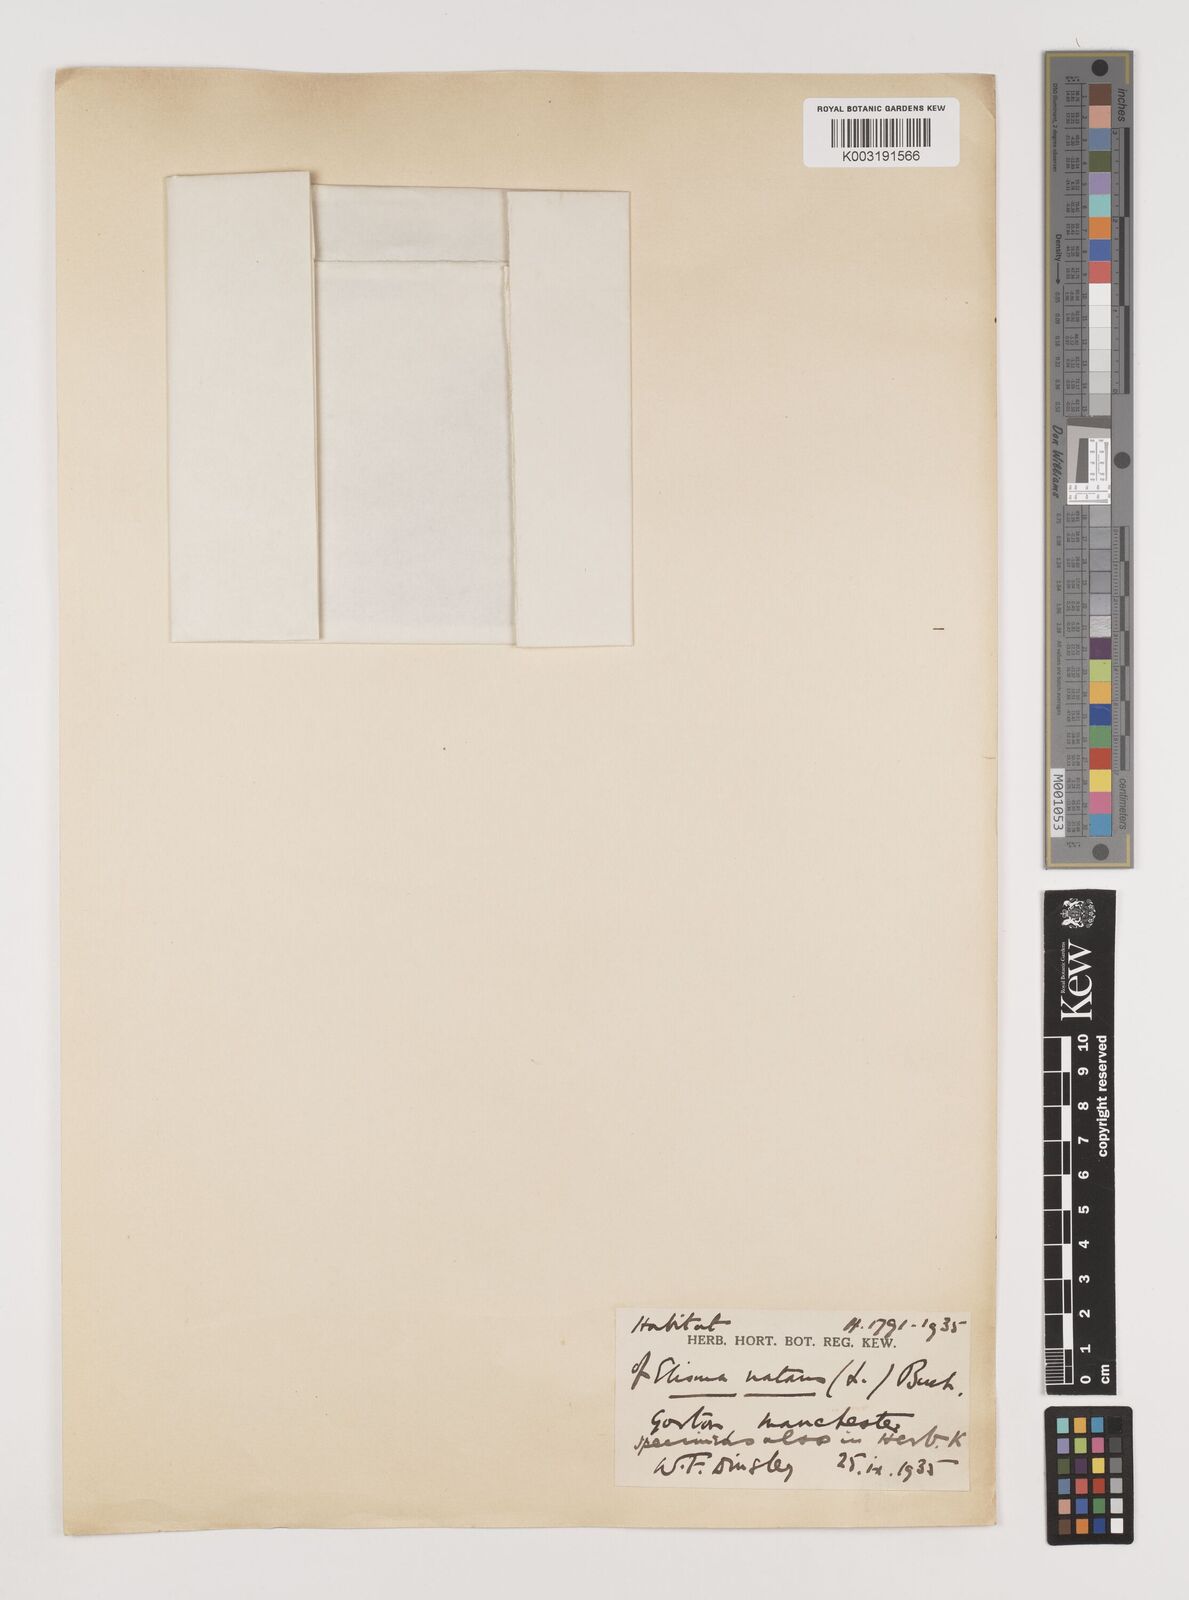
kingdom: Plantae
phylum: Tracheophyta
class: Liliopsida
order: Alismatales
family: Alismataceae
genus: Luronium
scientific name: Luronium natans
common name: Floating water-plantain
